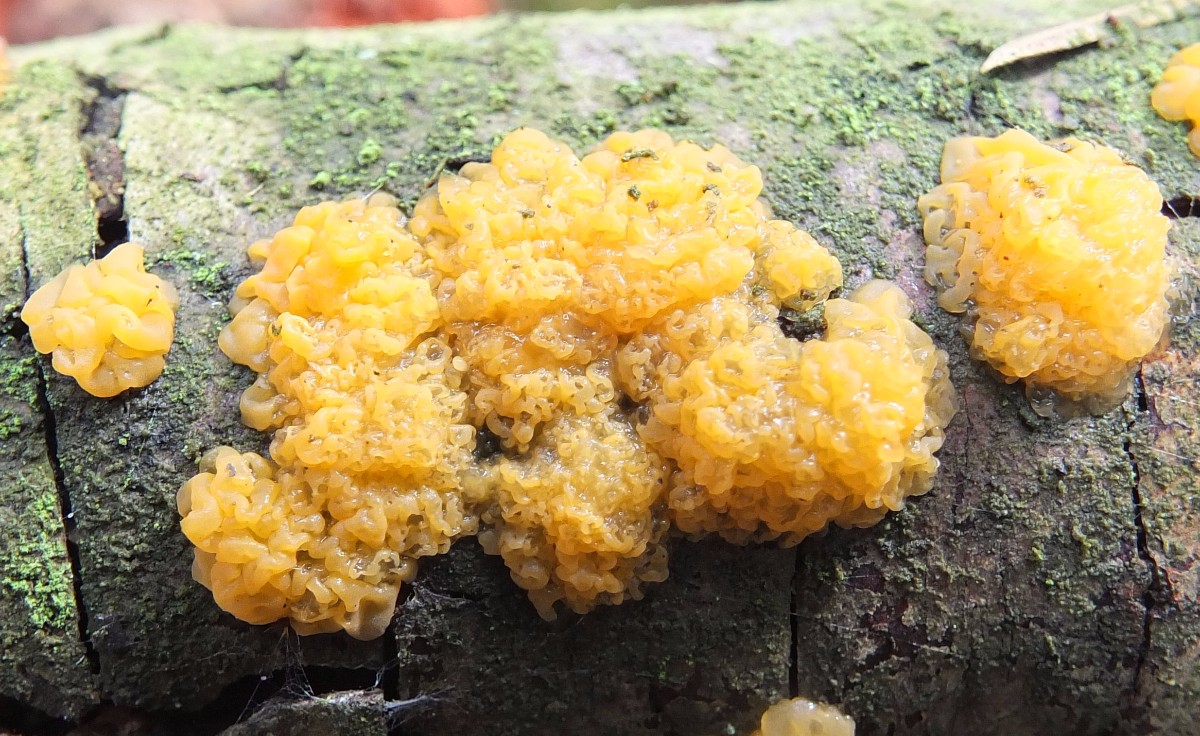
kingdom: Fungi
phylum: Basidiomycota
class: Dacrymycetes
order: Dacrymycetales
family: Dacrymycetaceae
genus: Dacrymyces
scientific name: Dacrymyces stillatus
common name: almindelig tåresvamp
